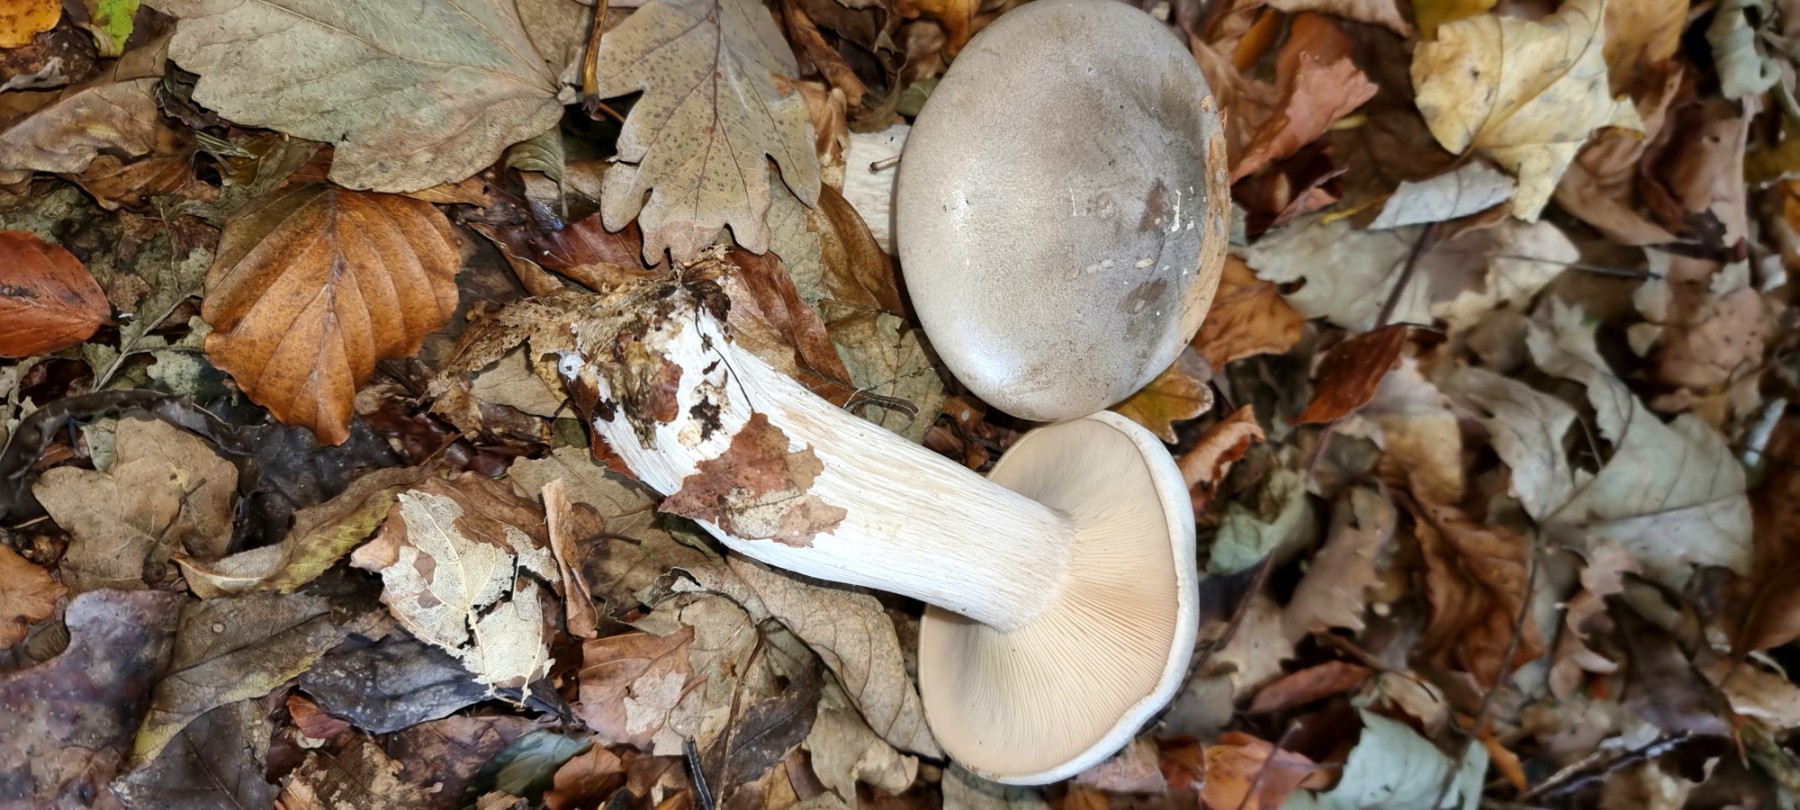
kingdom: Fungi
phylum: Basidiomycota
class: Agaricomycetes
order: Agaricales
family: Tricholomataceae
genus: Clitocybe
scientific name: Clitocybe nebularis
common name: tåge-tragthat
